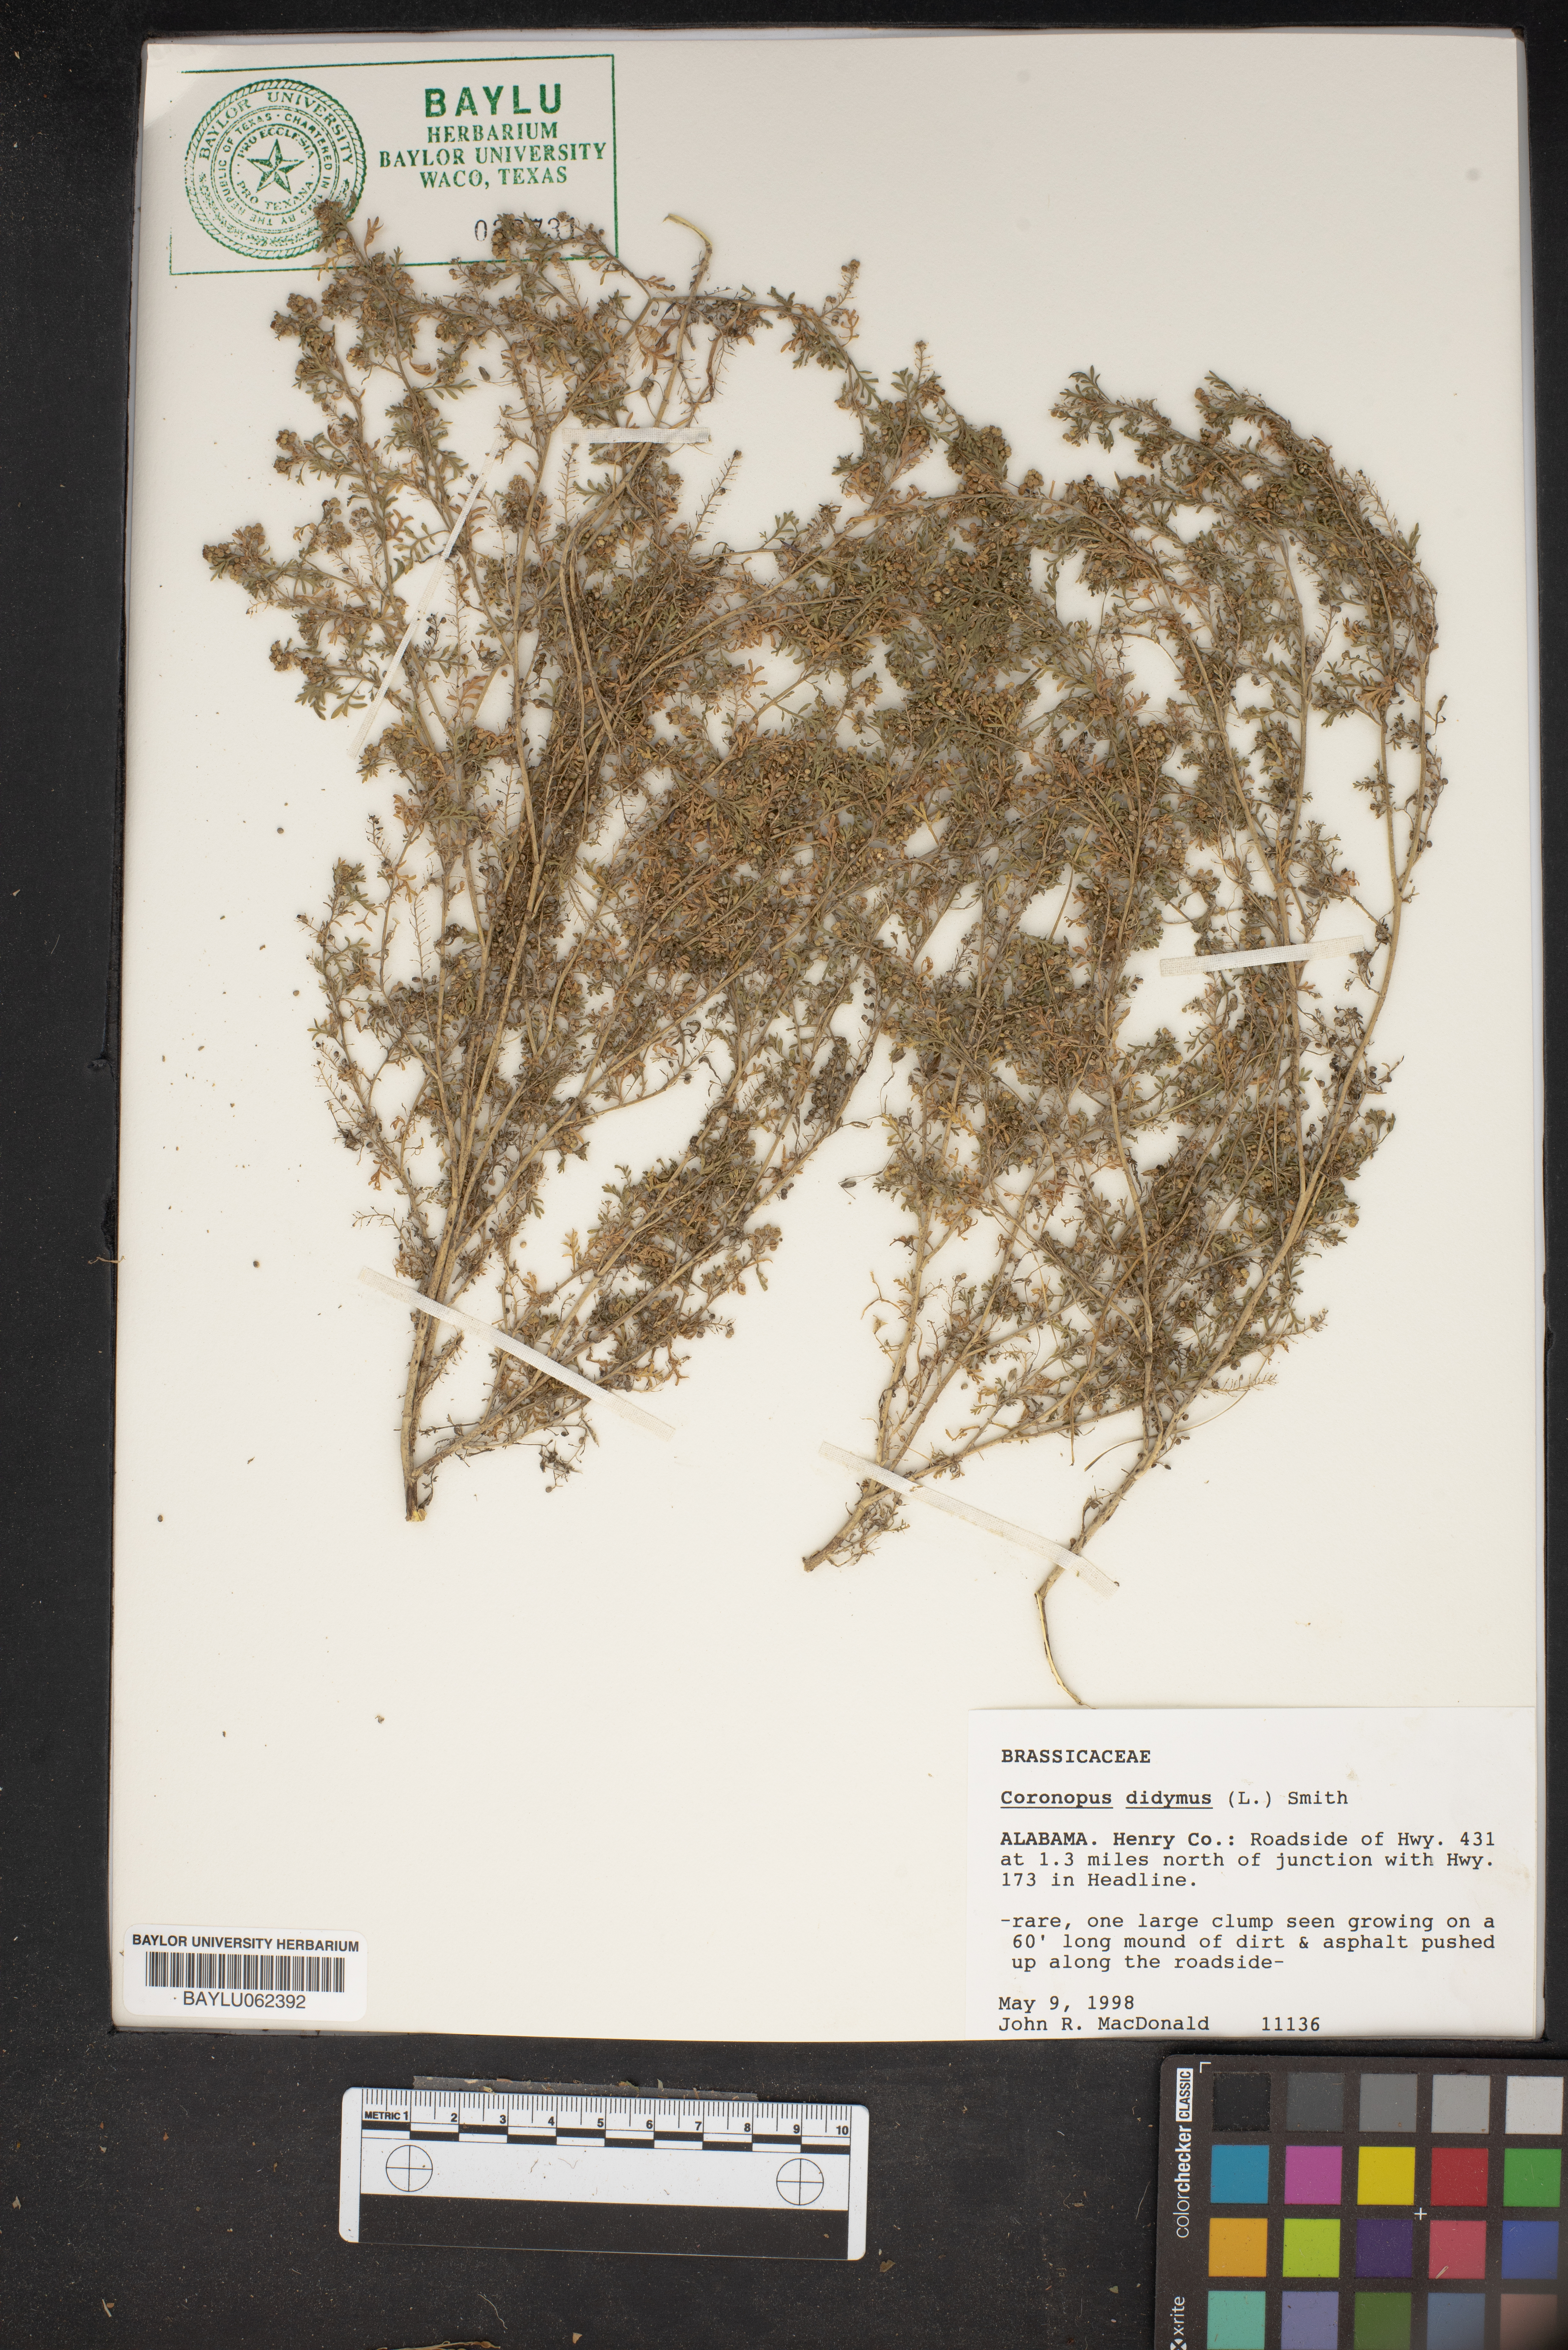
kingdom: Plantae
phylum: Tracheophyta
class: Magnoliopsida
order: Brassicales
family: Brassicaceae
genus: Lepidium
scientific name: Lepidium didymum
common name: Lesser swinecress
